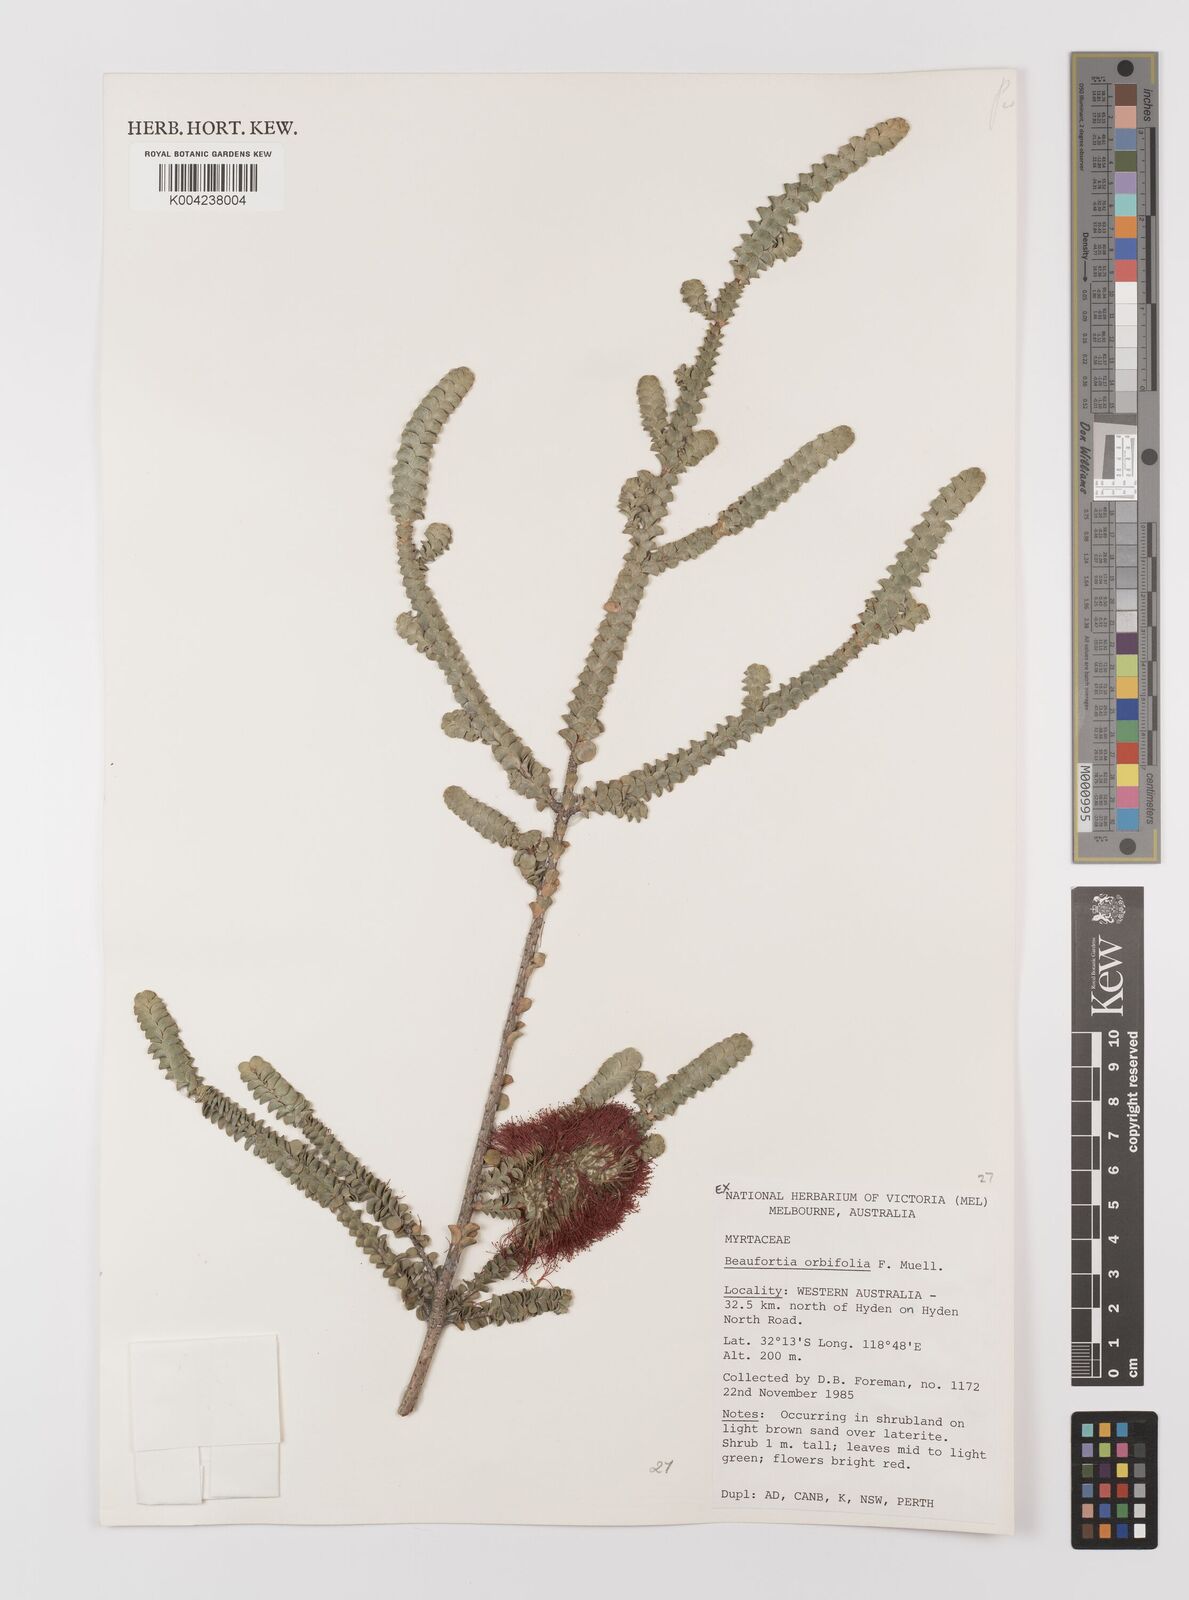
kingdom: Plantae
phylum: Tracheophyta
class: Magnoliopsida
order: Myrtales
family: Myrtaceae
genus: Melaleuca
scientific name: Melaleuca orbifolia
